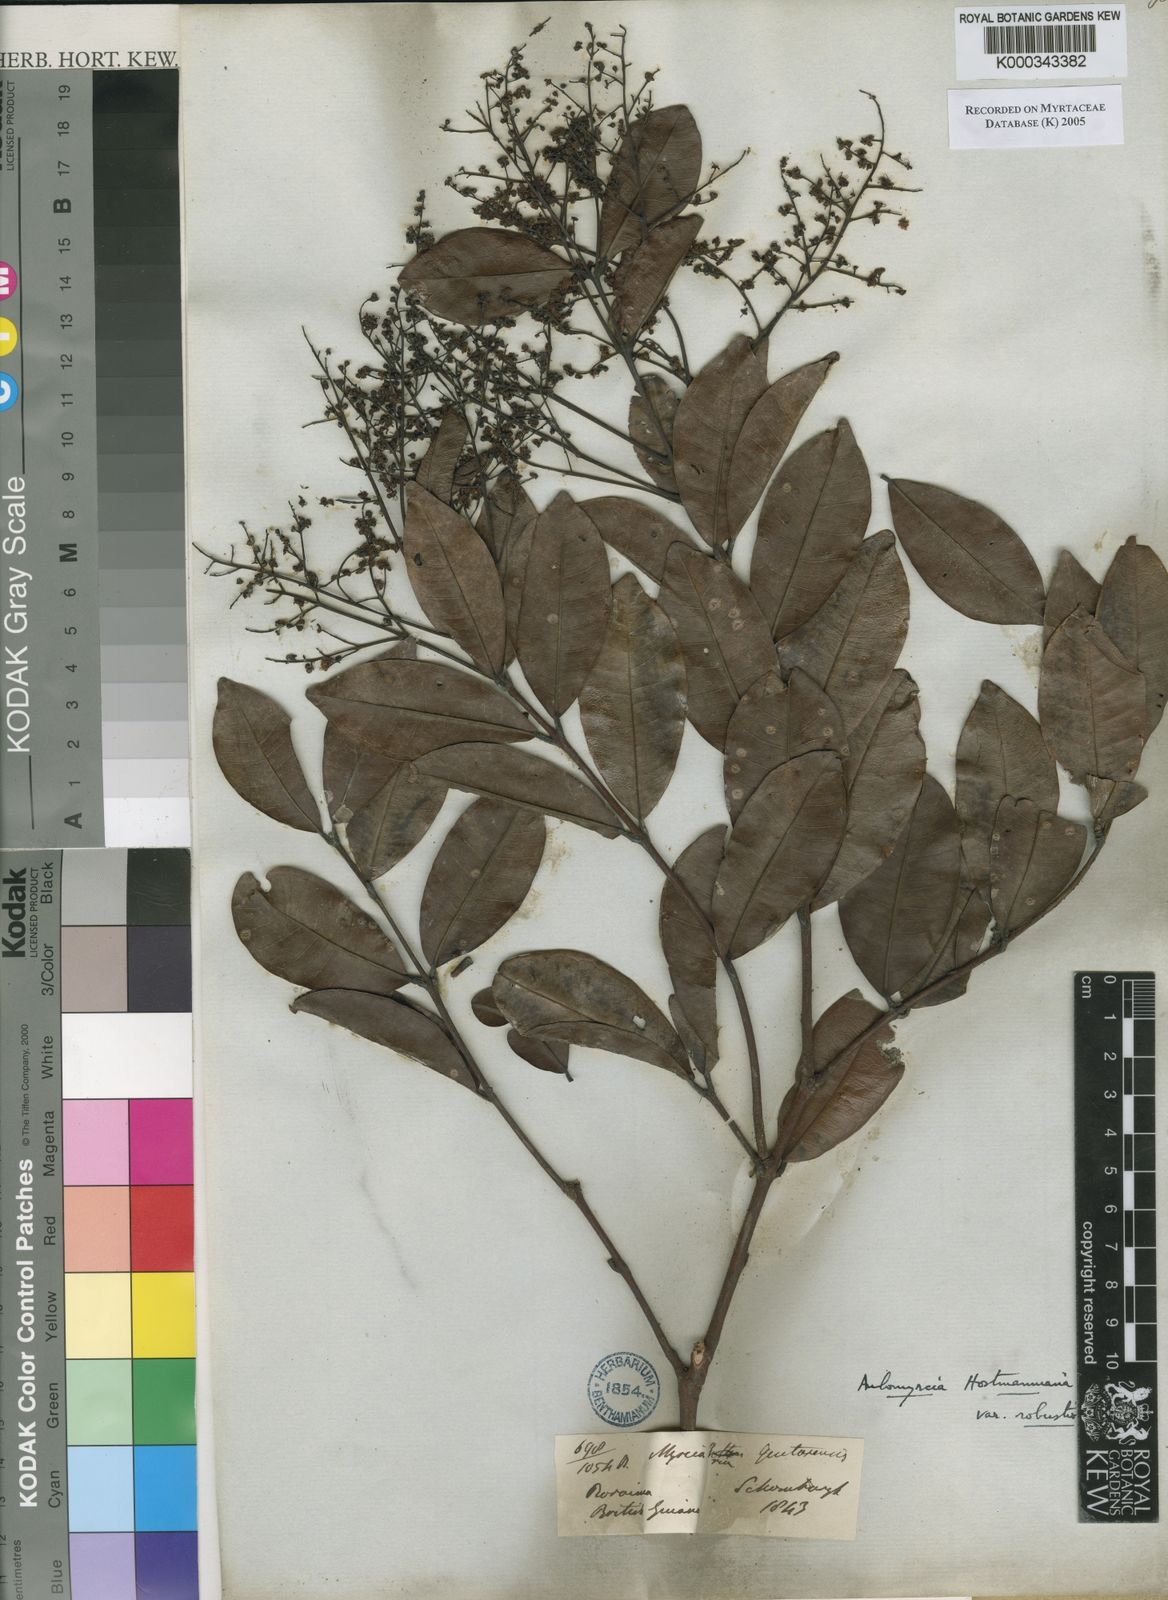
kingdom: Plantae
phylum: Tracheophyta
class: Magnoliopsida
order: Myrtales
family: Myrtaceae
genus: Myrcia
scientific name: Myrcia amazonica
